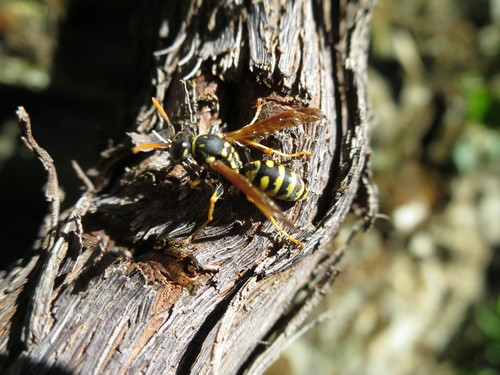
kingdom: Animalia
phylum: Arthropoda
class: Insecta
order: Hymenoptera
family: Eumenidae
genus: Polistes
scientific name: Polistes dominula
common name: Paper wasp
